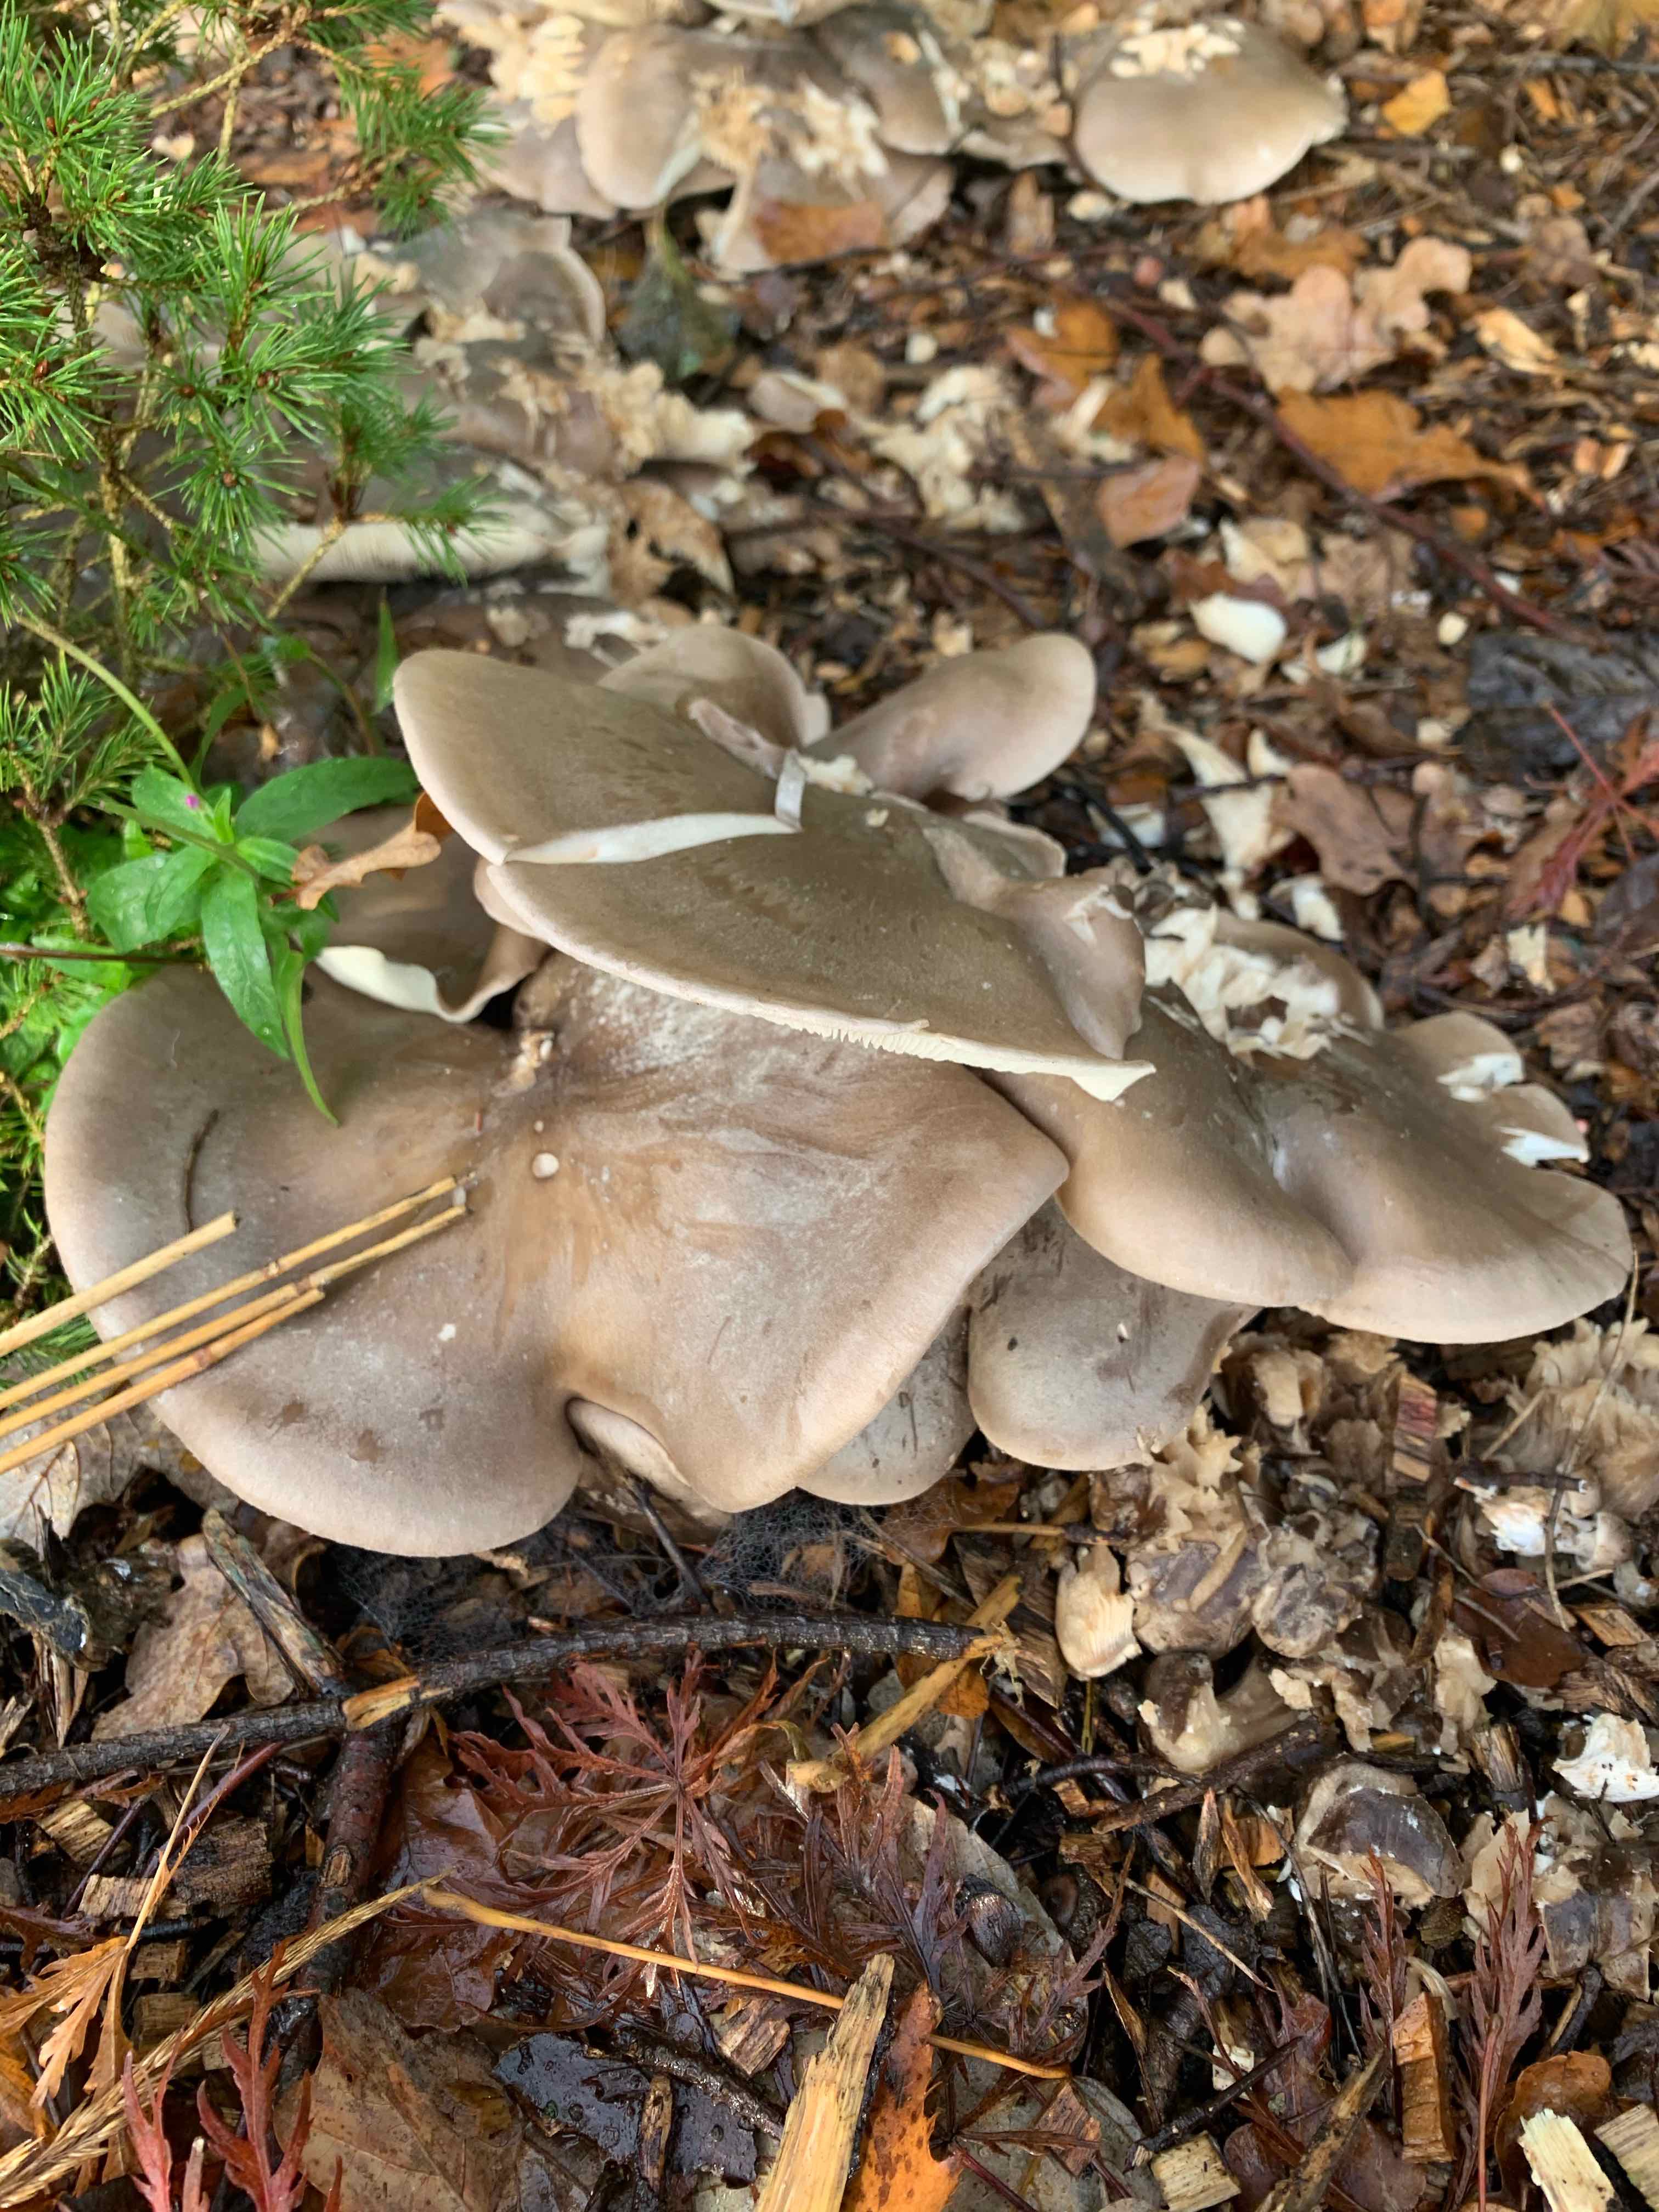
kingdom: Fungi
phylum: Basidiomycota
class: Agaricomycetes
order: Agaricales
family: Tricholomataceae
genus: Clitocybe
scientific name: Clitocybe nebularis
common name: tåge-tragthat
